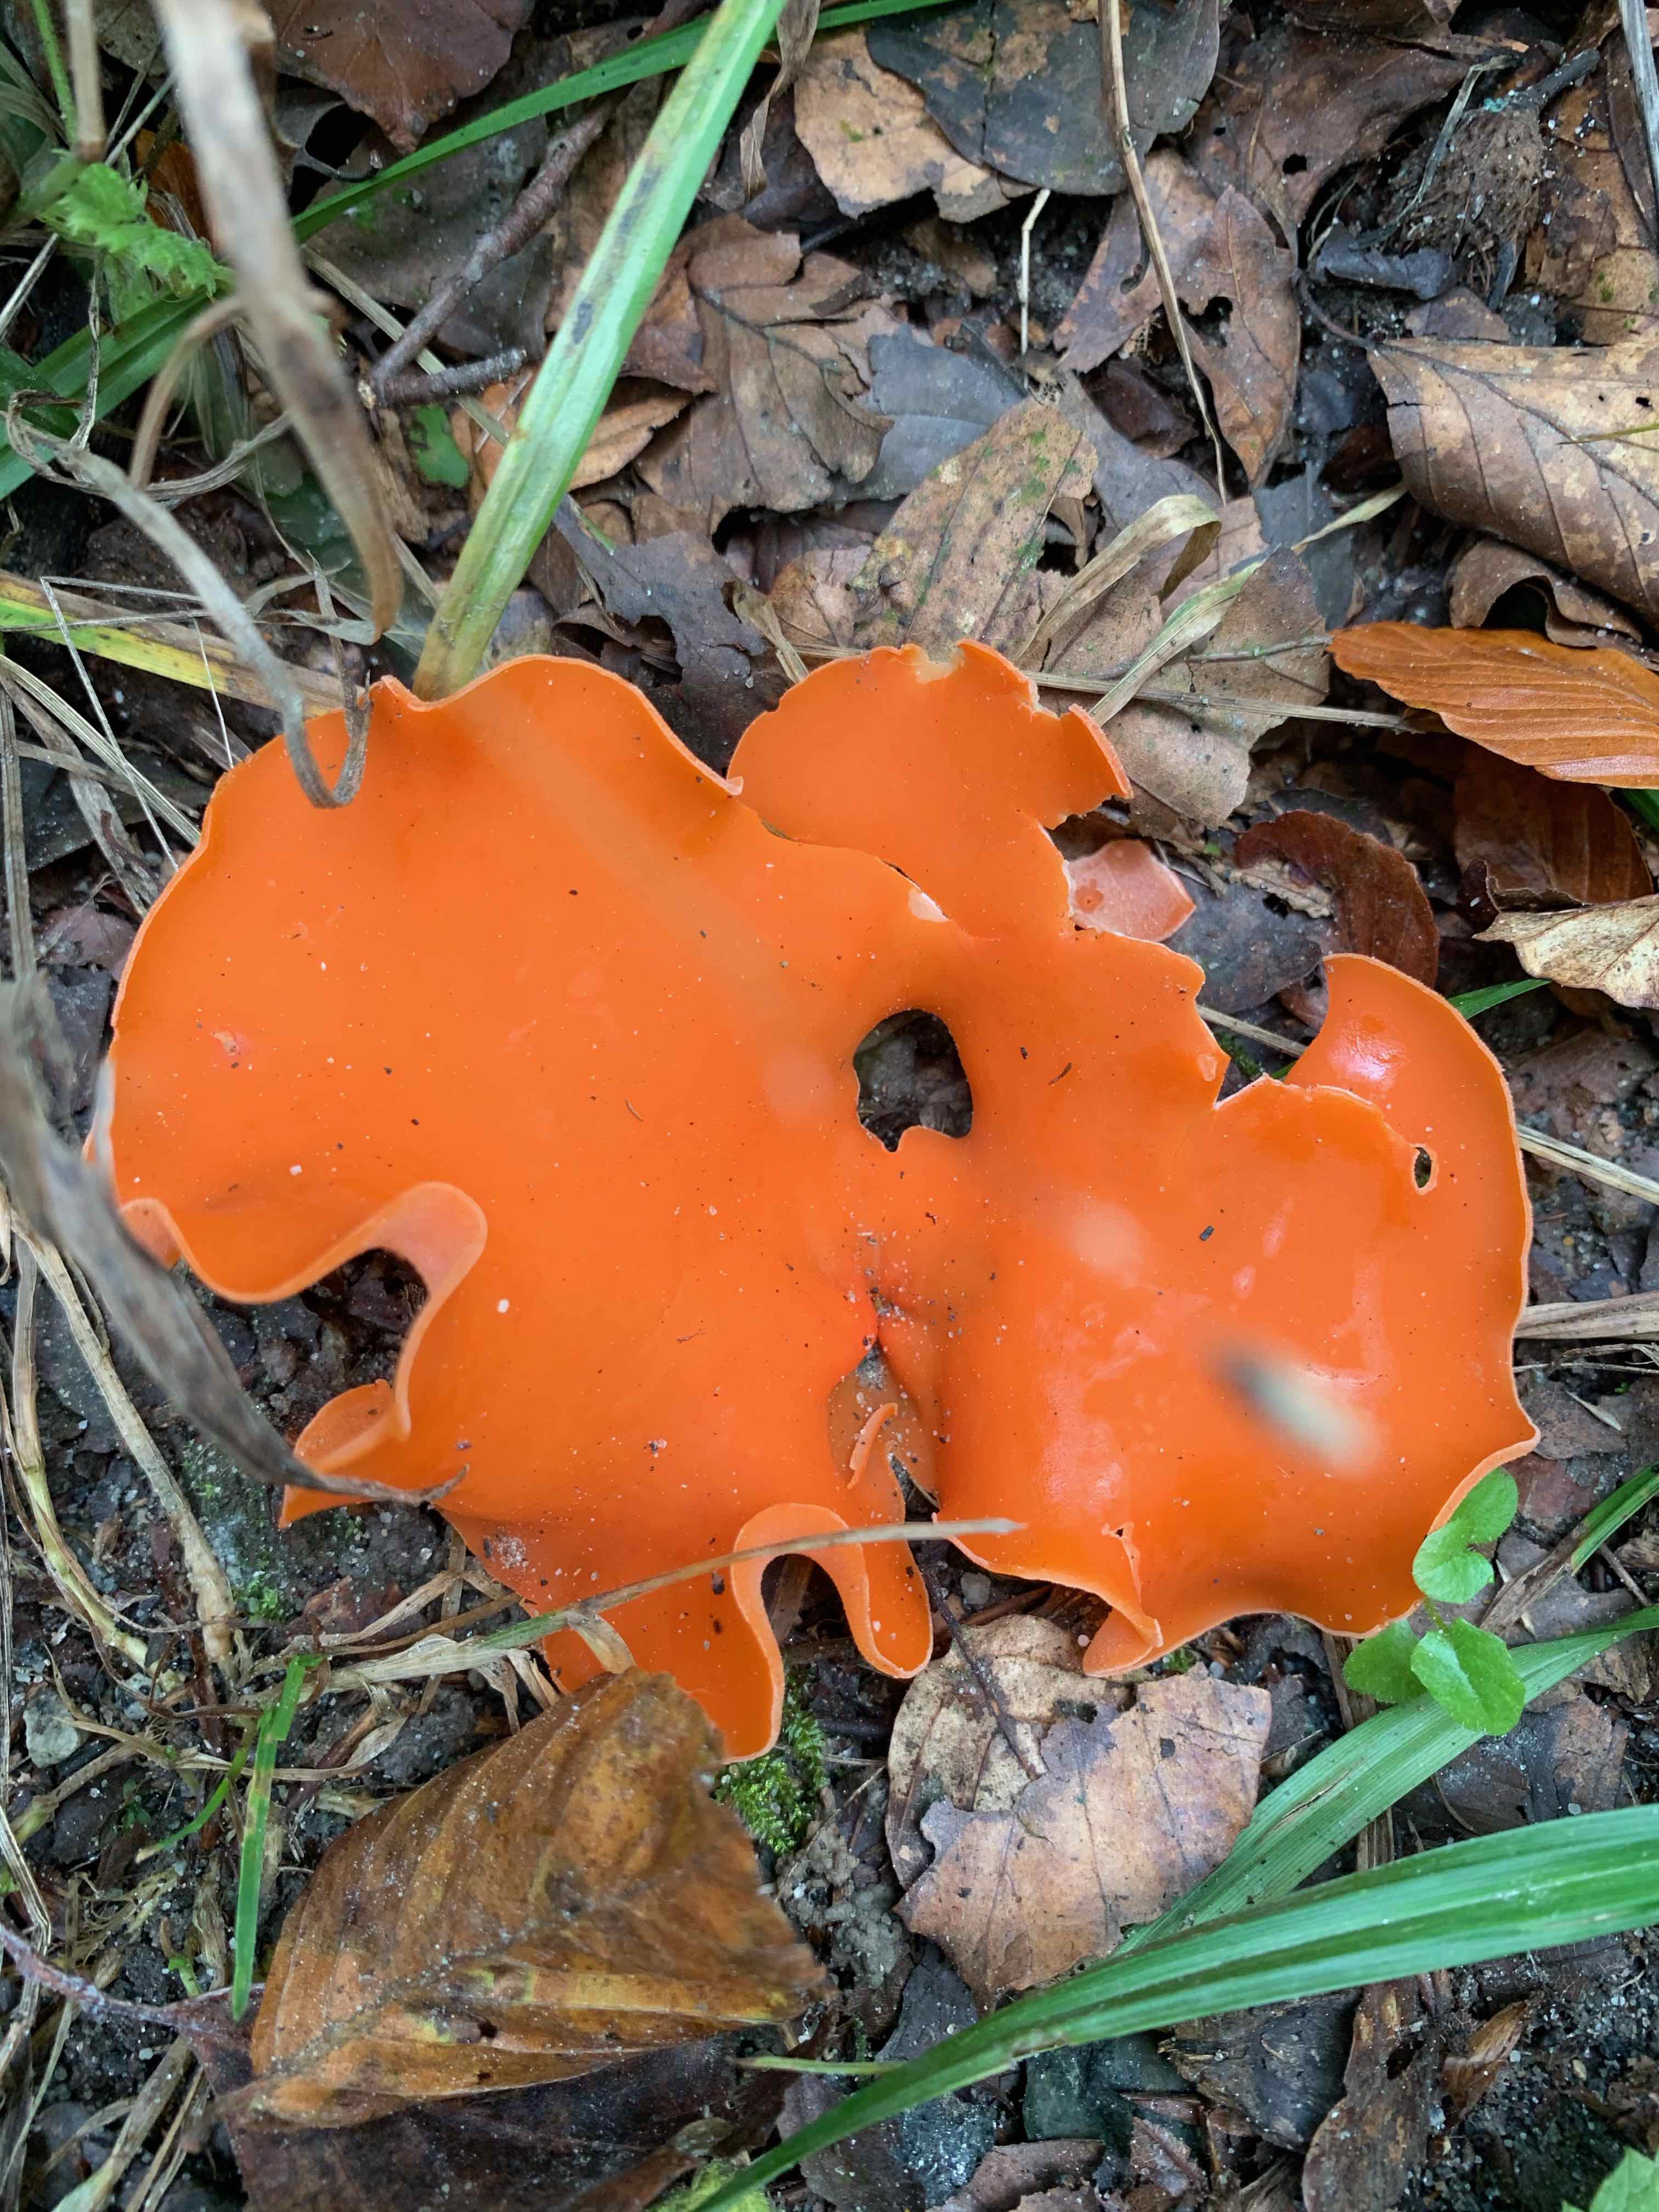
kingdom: Fungi
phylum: Ascomycota
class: Pezizomycetes
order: Pezizales
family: Pyronemataceae
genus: Aleuria
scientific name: Aleuria aurantia
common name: almindelig orangebæger
